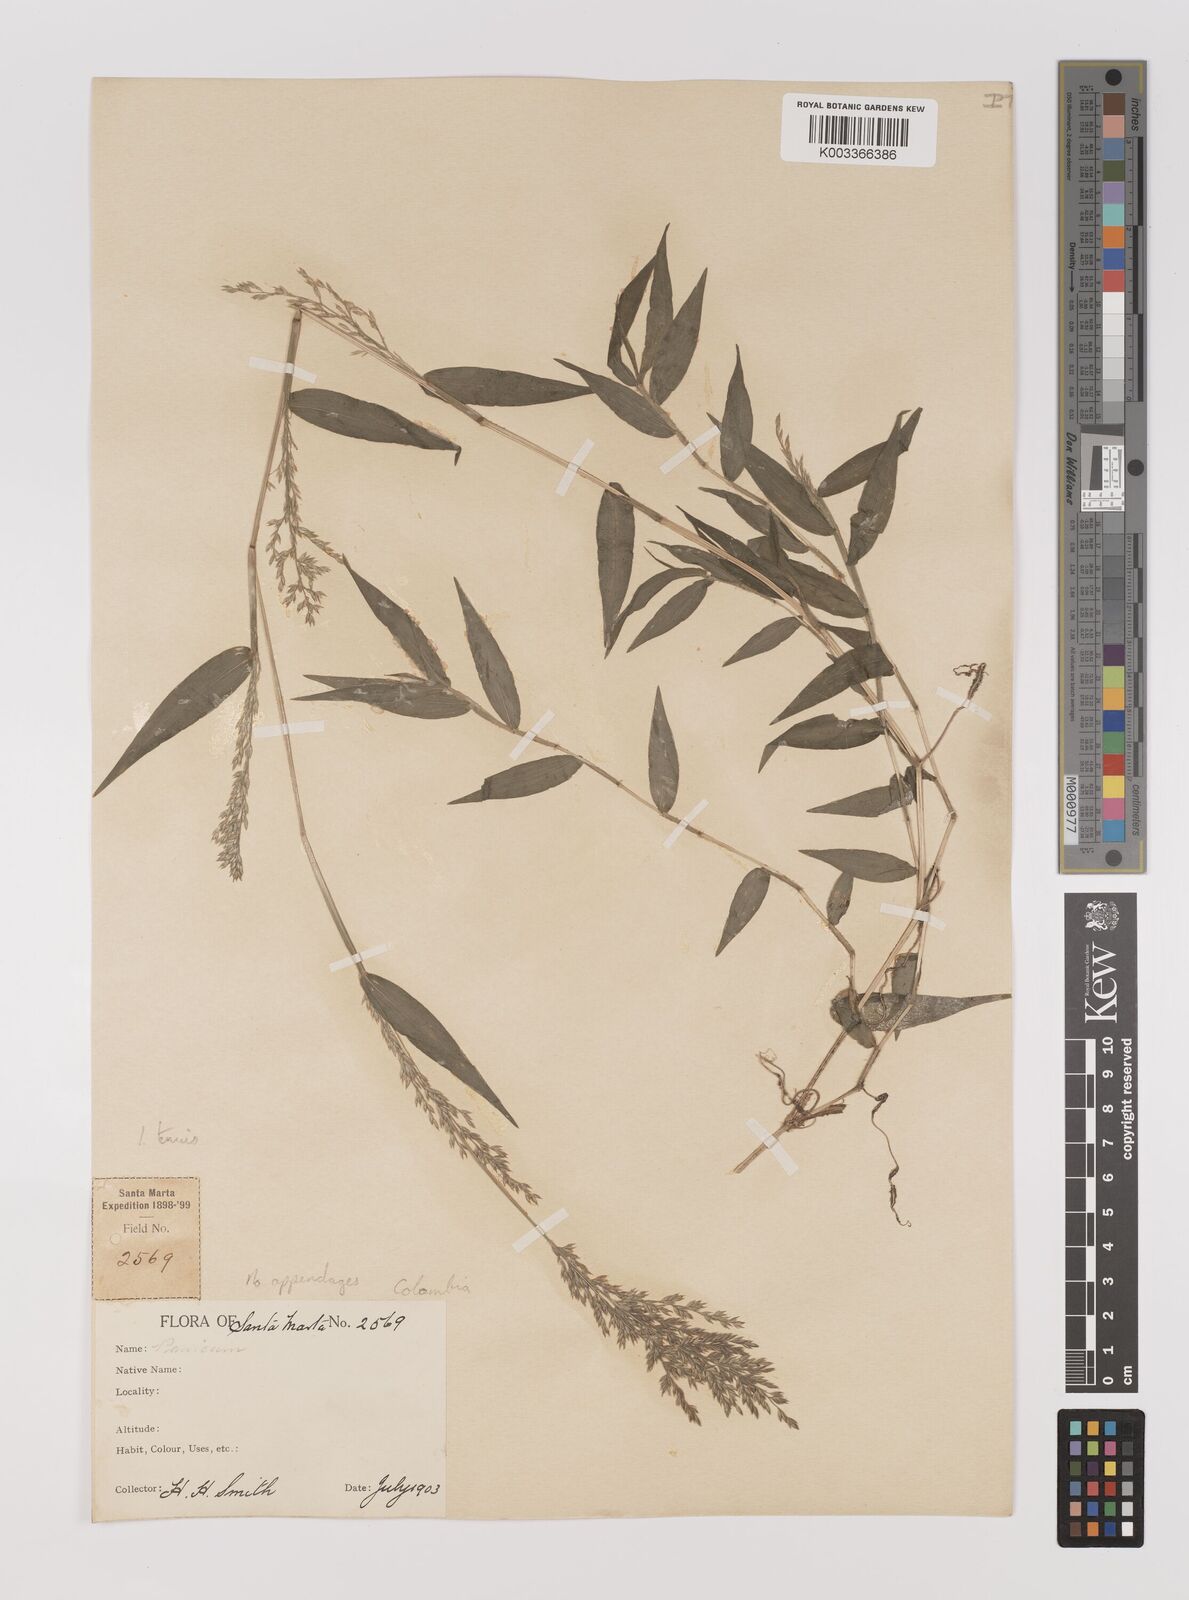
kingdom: Plantae
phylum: Tracheophyta
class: Liliopsida
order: Poales
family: Poaceae
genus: Ichnanthus
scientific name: Ichnanthus tenuis
